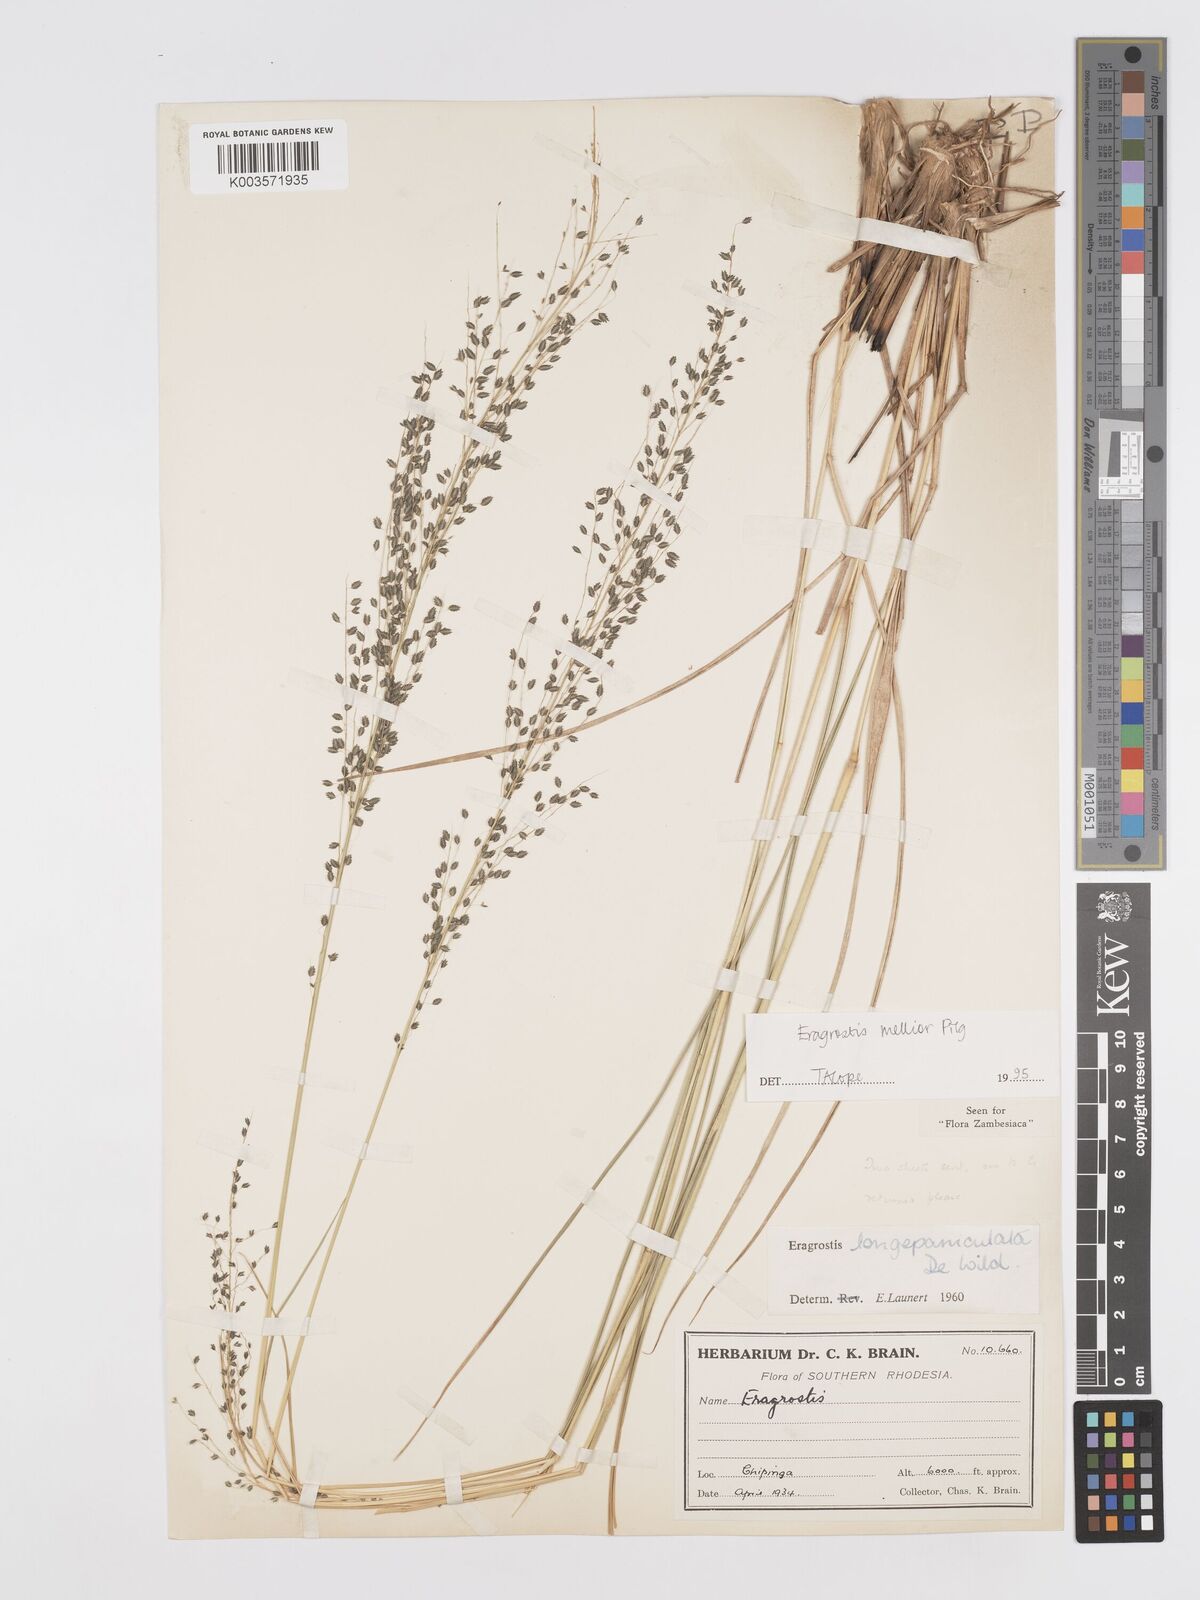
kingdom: Plantae
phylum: Tracheophyta
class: Liliopsida
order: Poales
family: Poaceae
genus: Eragrostis
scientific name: Eragrostis mollior
